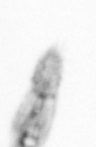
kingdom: Animalia
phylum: Arthropoda
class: Copepoda
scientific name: Copepoda
